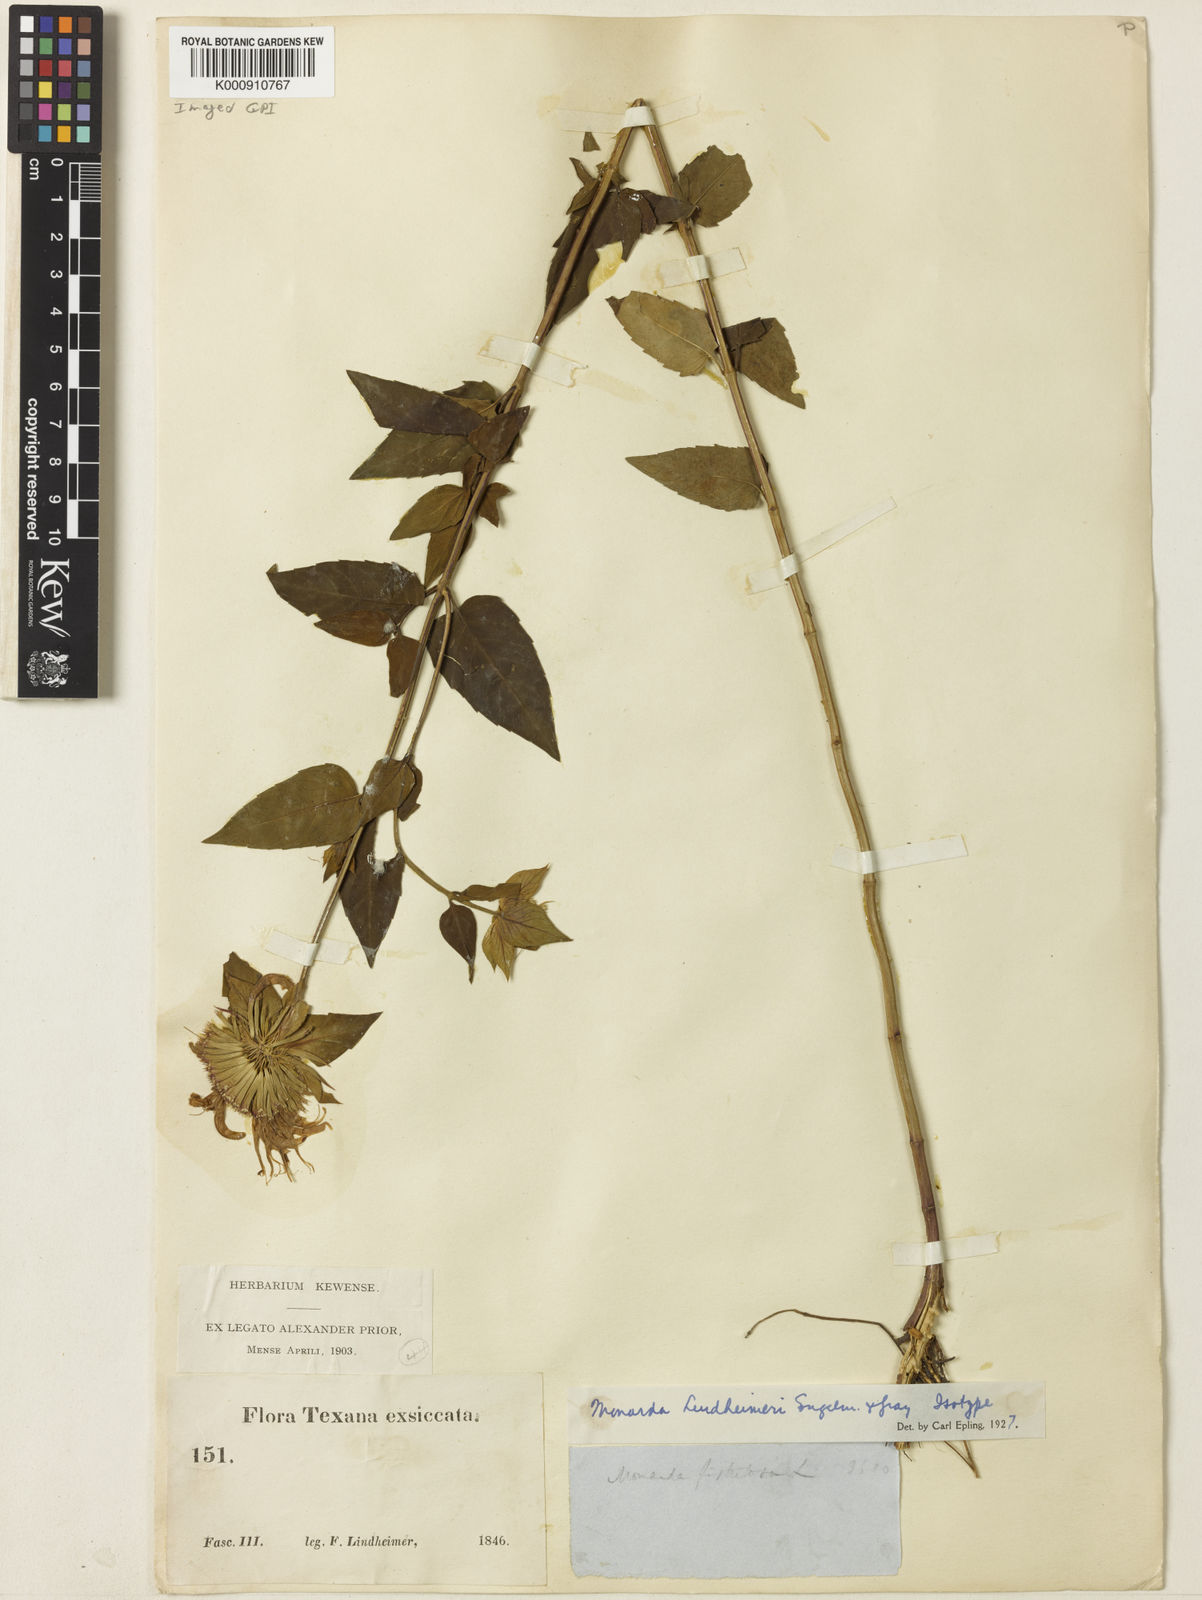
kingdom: Plantae
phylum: Tracheophyta
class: Magnoliopsida
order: Lamiales
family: Lamiaceae
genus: Monarda
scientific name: Monarda lindheimeri
